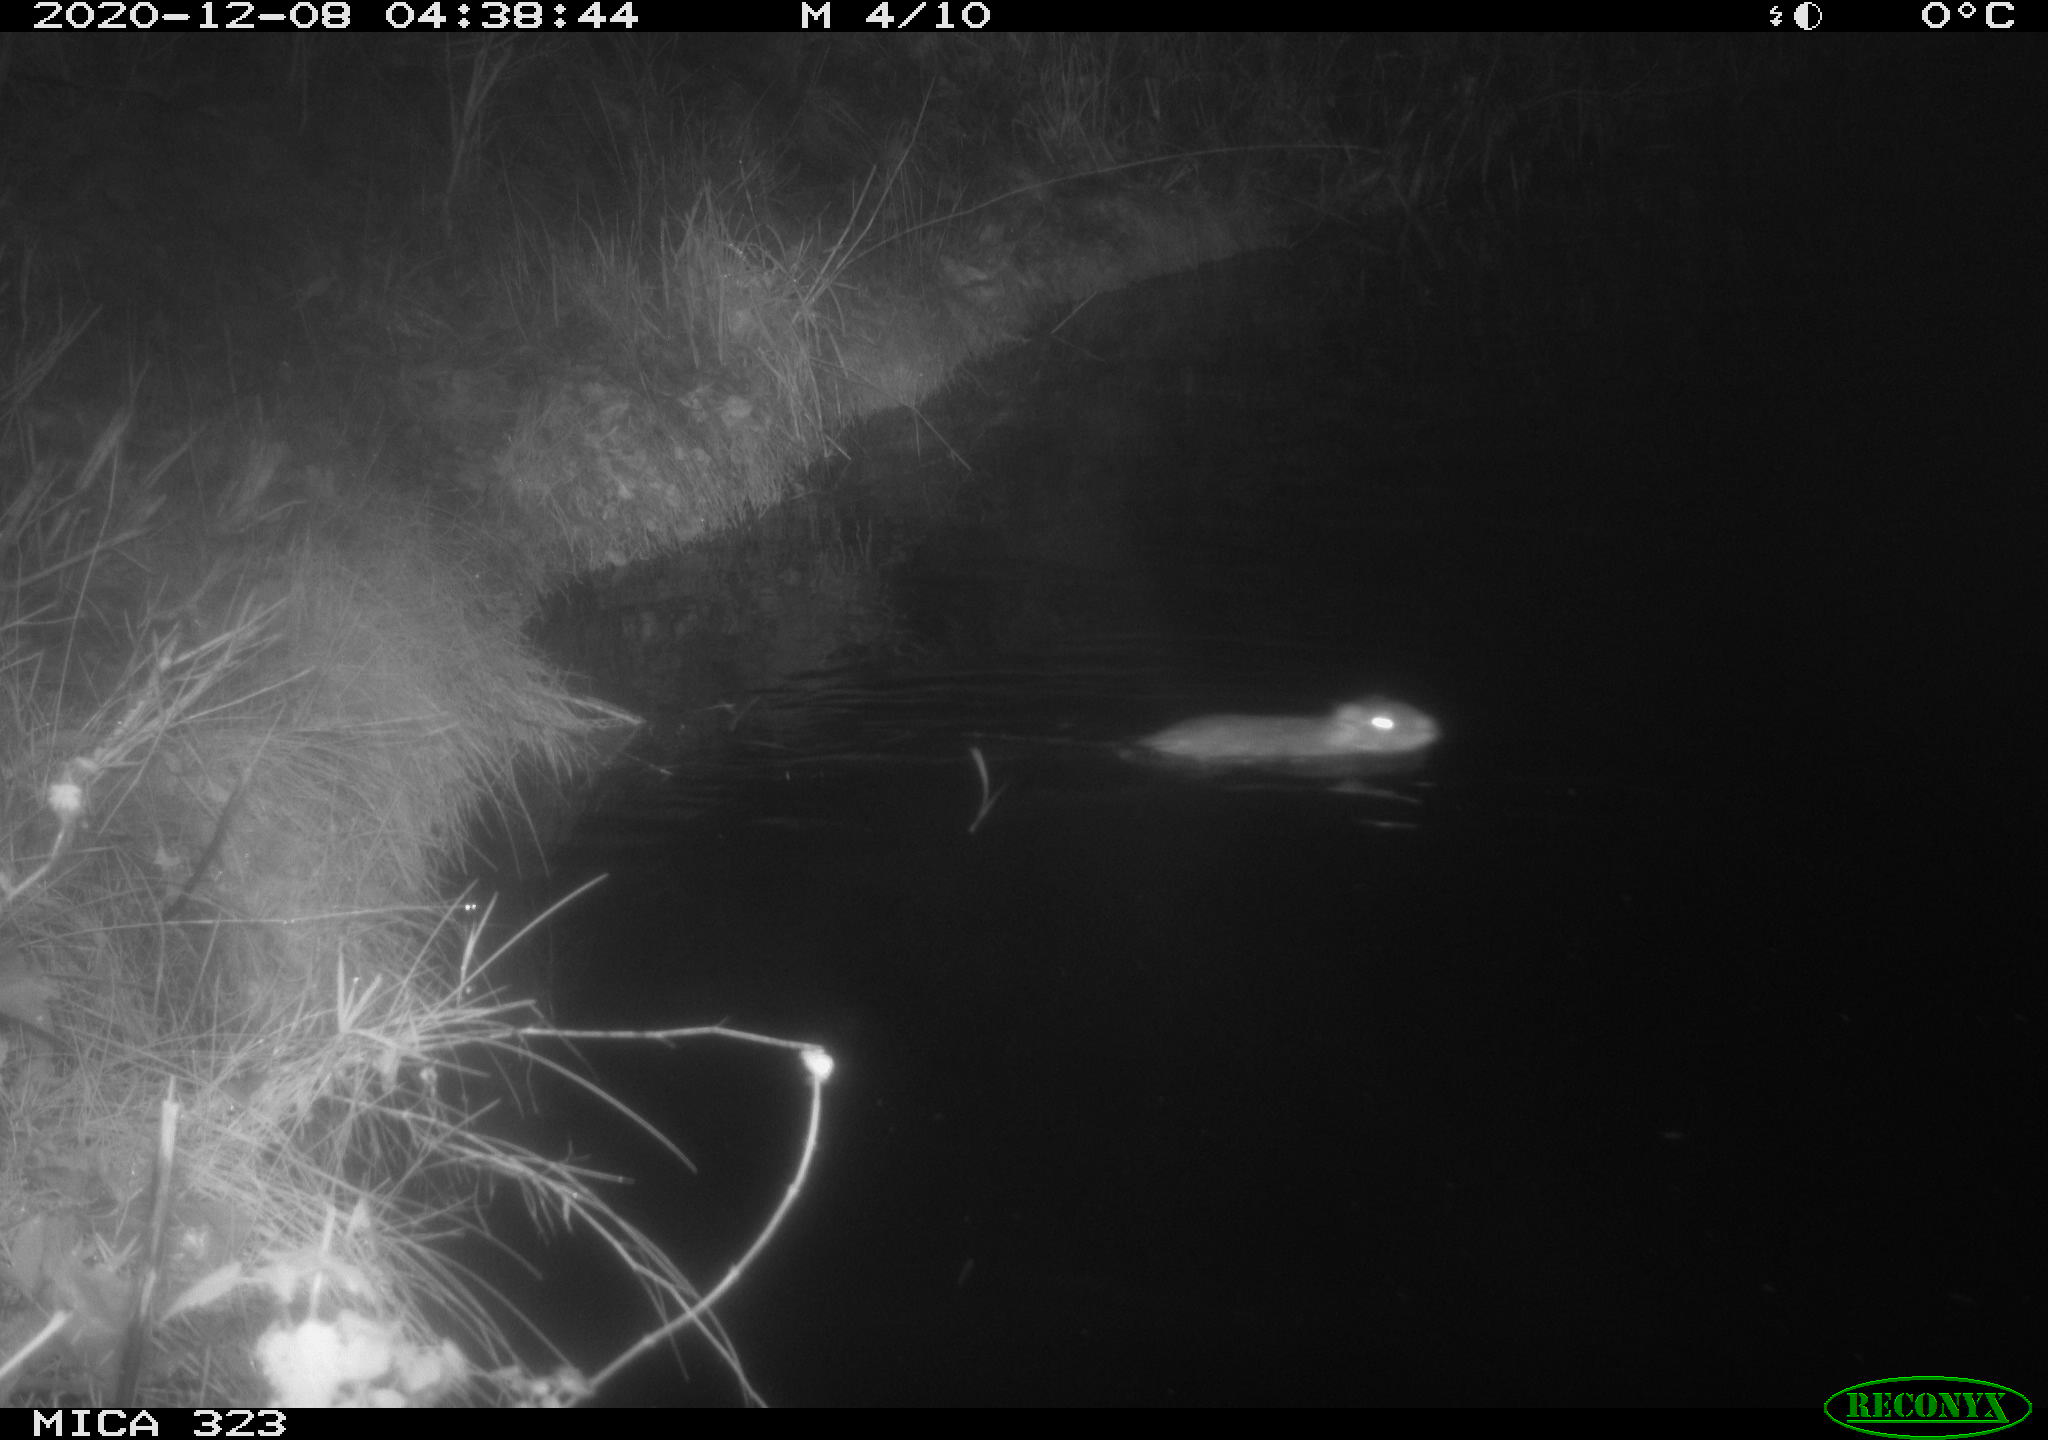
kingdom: Animalia
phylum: Chordata
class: Mammalia
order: Rodentia
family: Myocastoridae
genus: Myocastor
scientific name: Myocastor coypus
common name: Coypu
